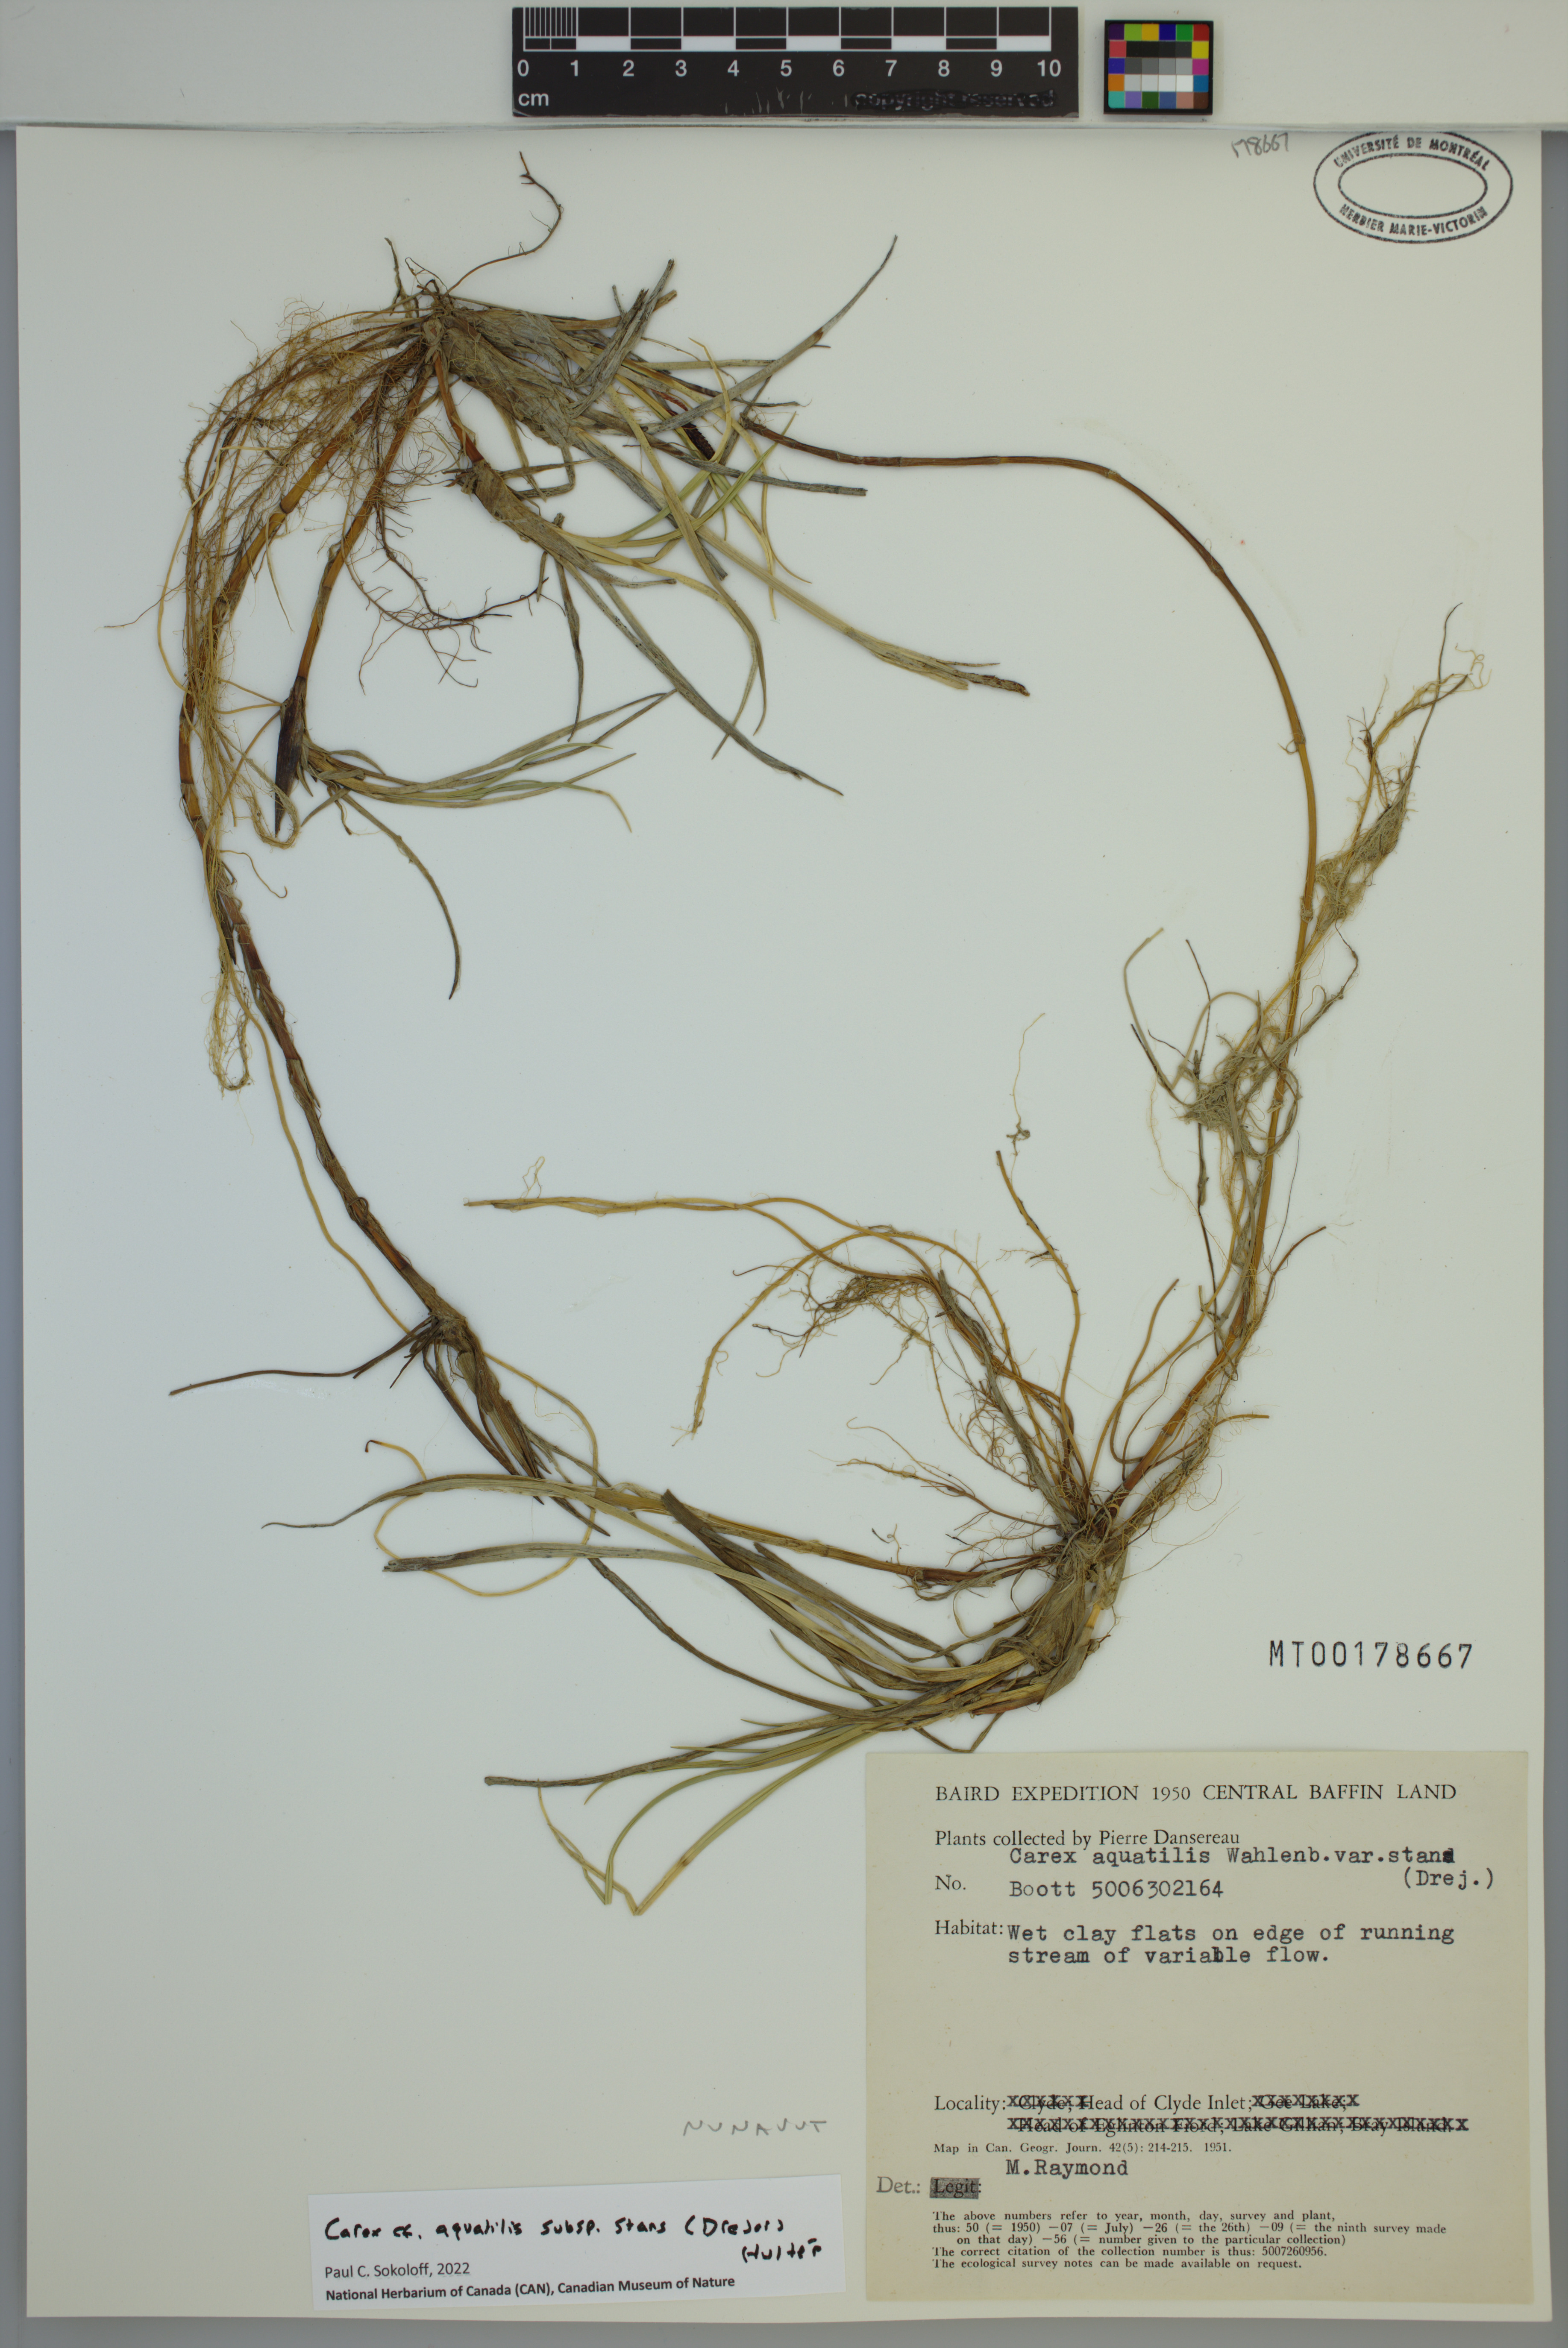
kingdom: Plantae
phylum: Tracheophyta
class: Liliopsida
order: Poales
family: Cyperaceae
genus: Carex
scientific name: Carex aquatilis
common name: Water sedge
